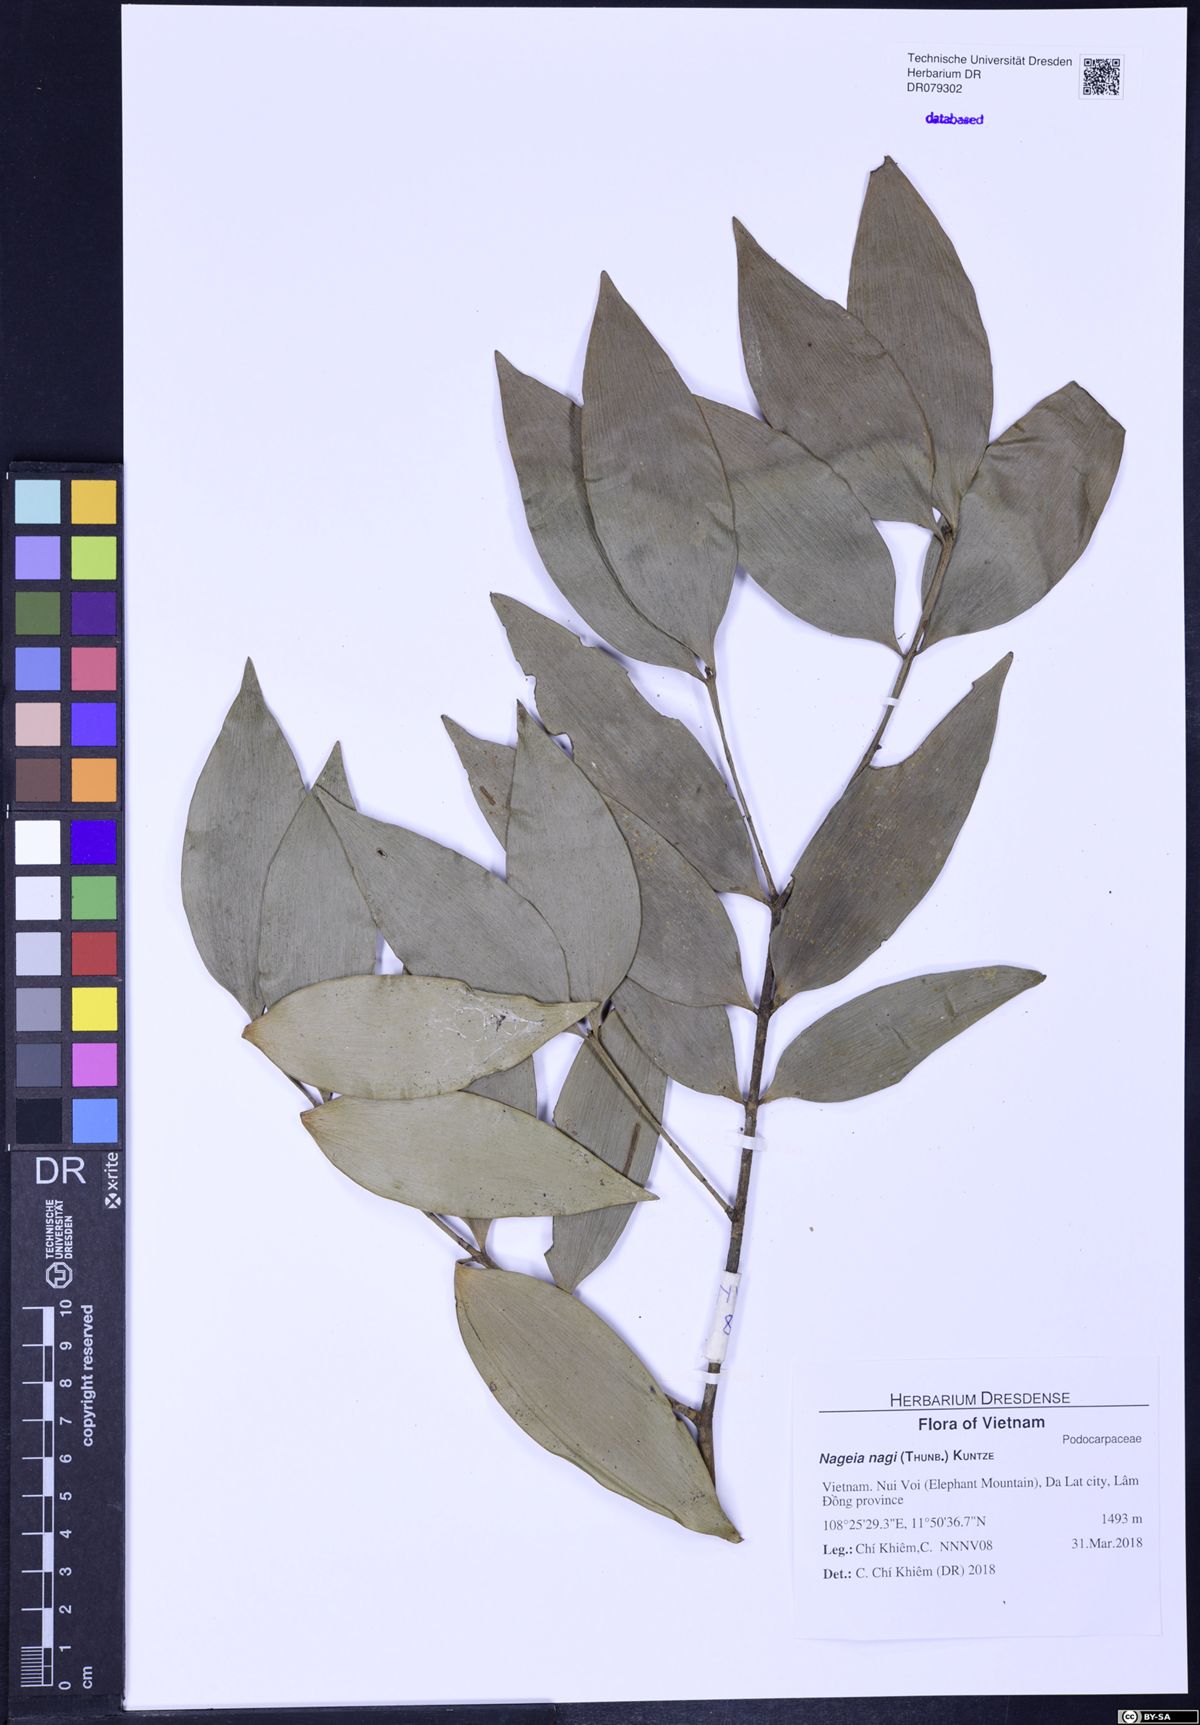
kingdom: Plantae
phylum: Tracheophyta
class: Pinopsida
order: Pinales
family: Podocarpaceae
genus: Nageia
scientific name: Nageia nagi
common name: Kaphal
